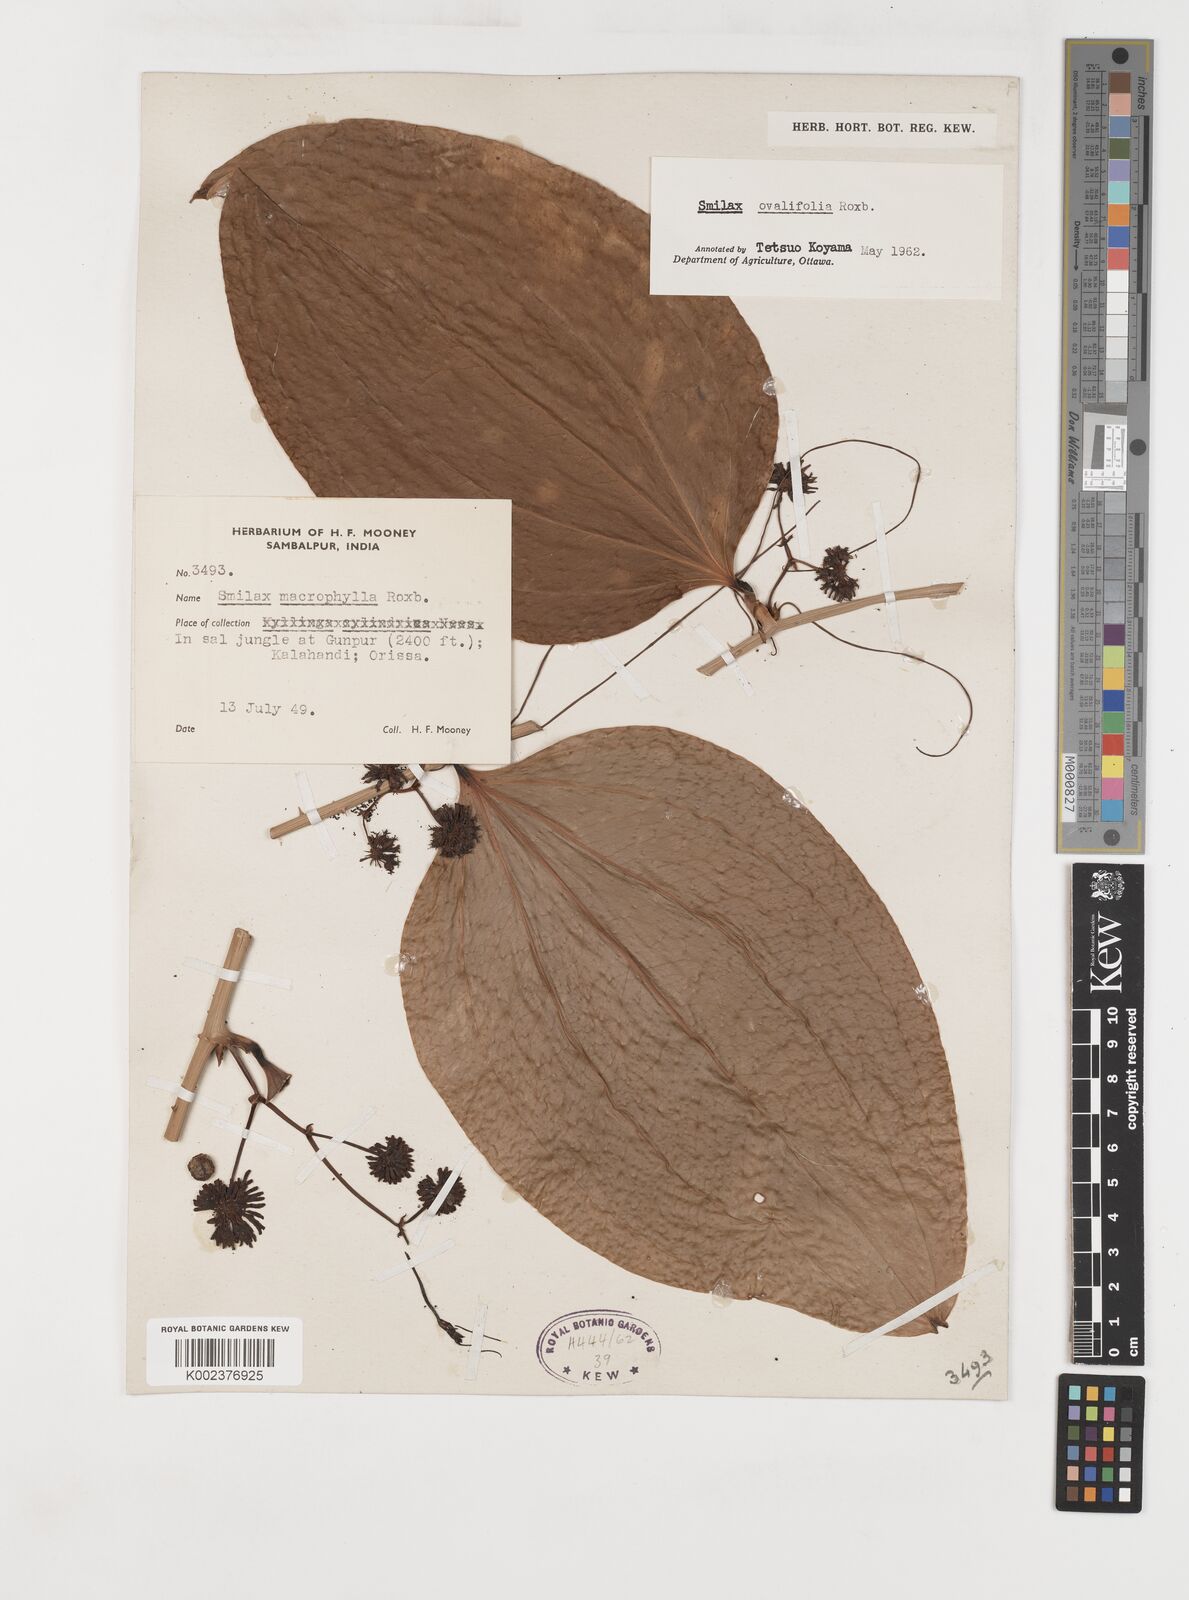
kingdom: Plantae
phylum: Tracheophyta
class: Liliopsida
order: Liliales
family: Smilacaceae
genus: Smilax
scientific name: Smilax ovalifolia
